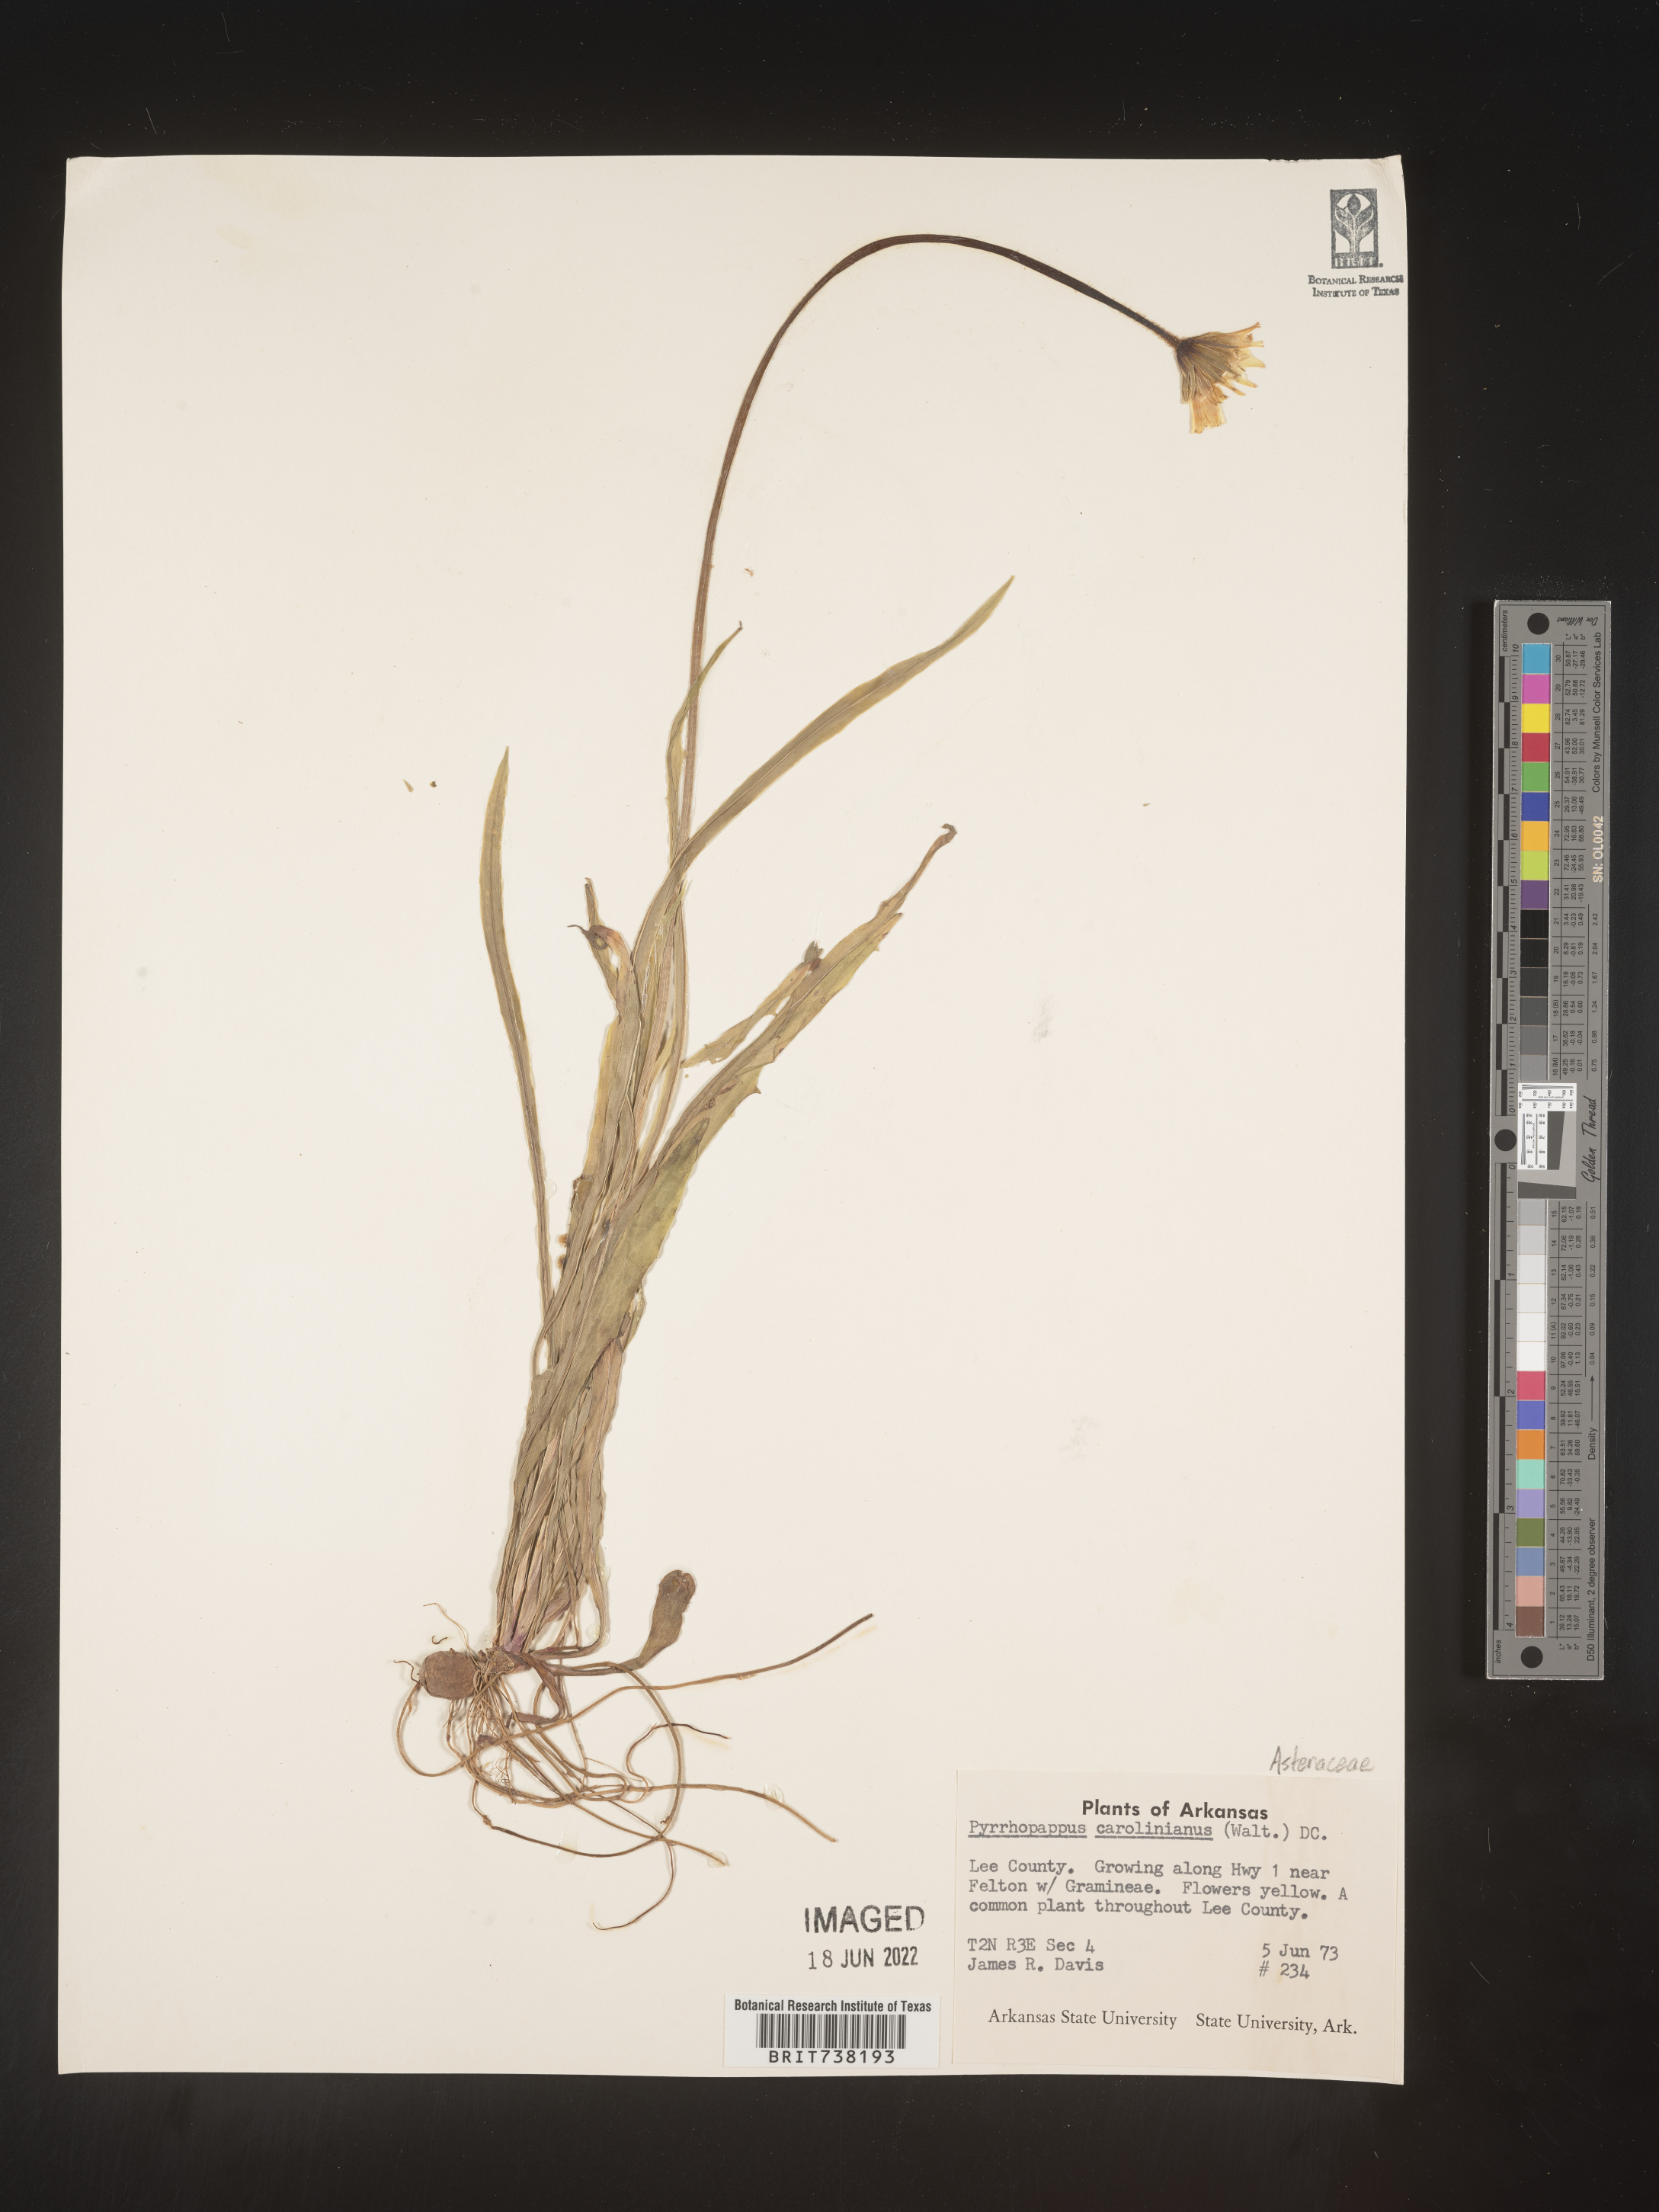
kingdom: Plantae
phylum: Tracheophyta
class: Magnoliopsida
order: Asterales
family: Asteraceae
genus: Pyrrhopappus
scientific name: Pyrrhopappus carolinianus
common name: Carolina desert-chicory
